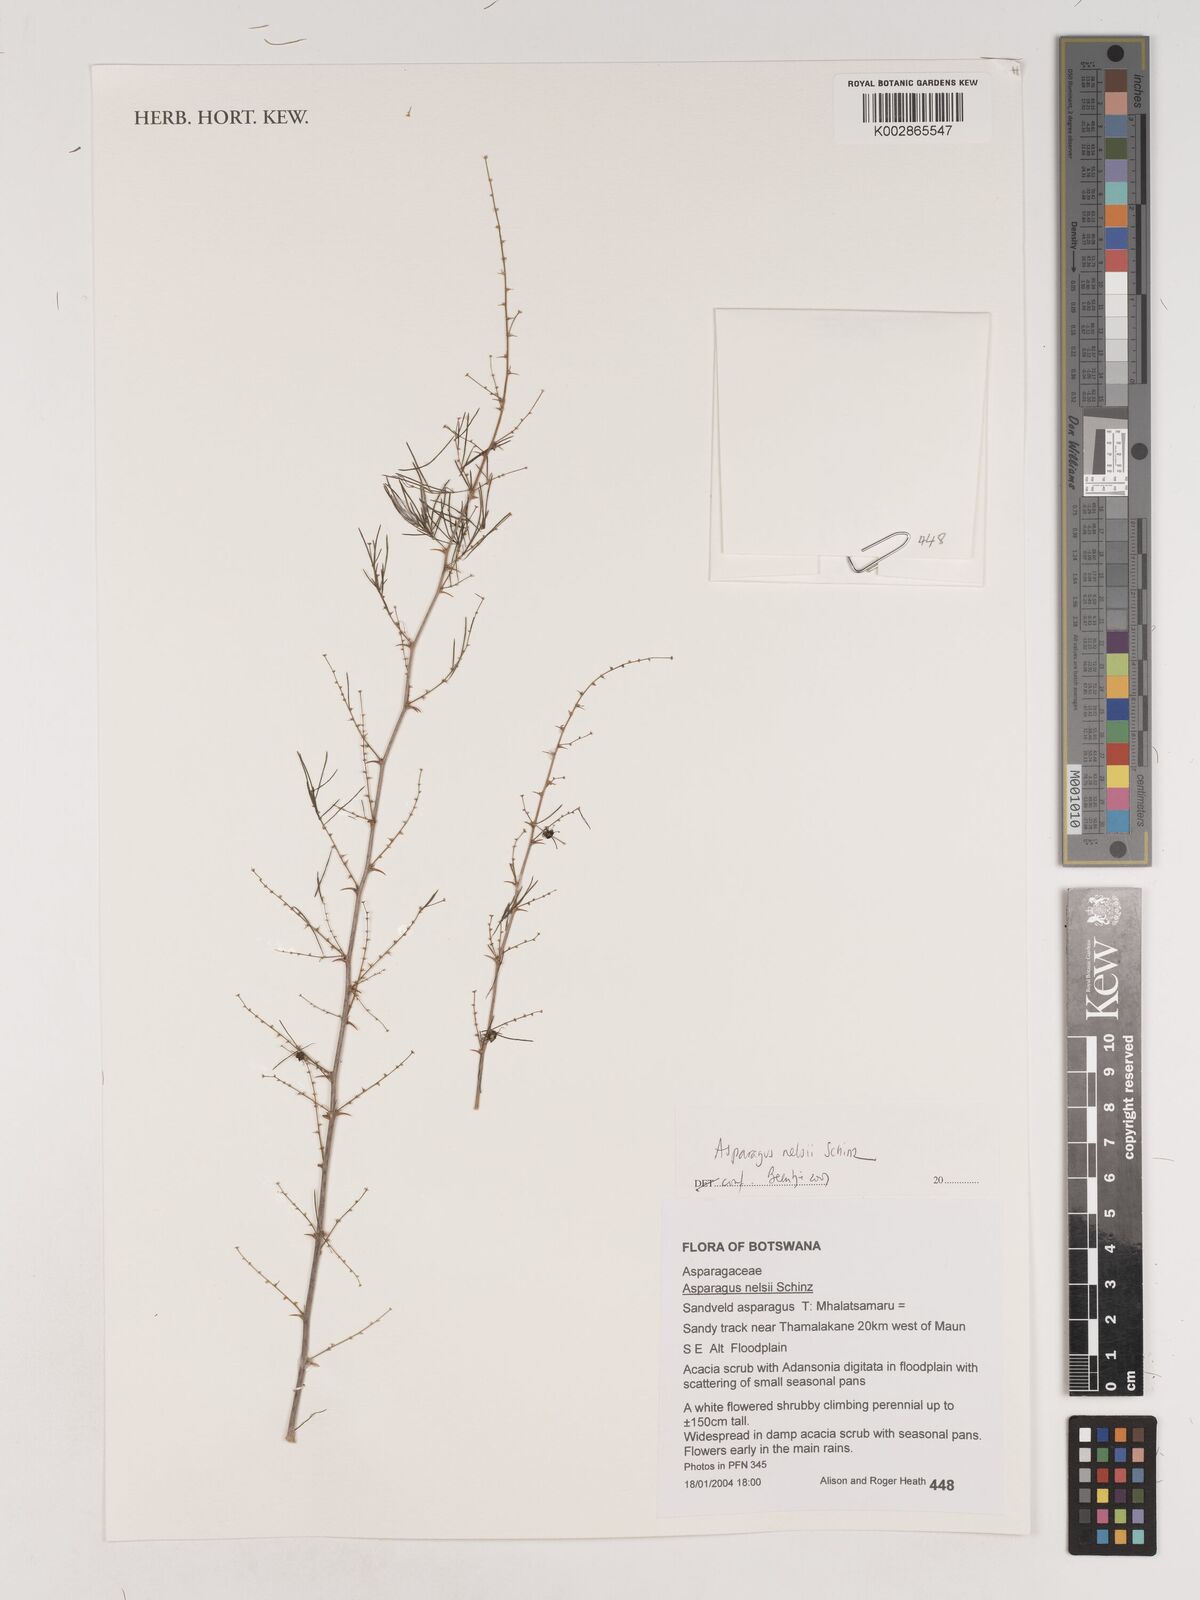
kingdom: Plantae
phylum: Tracheophyta
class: Liliopsida
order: Asparagales
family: Asparagaceae
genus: Asparagus
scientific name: Asparagus nelsii
